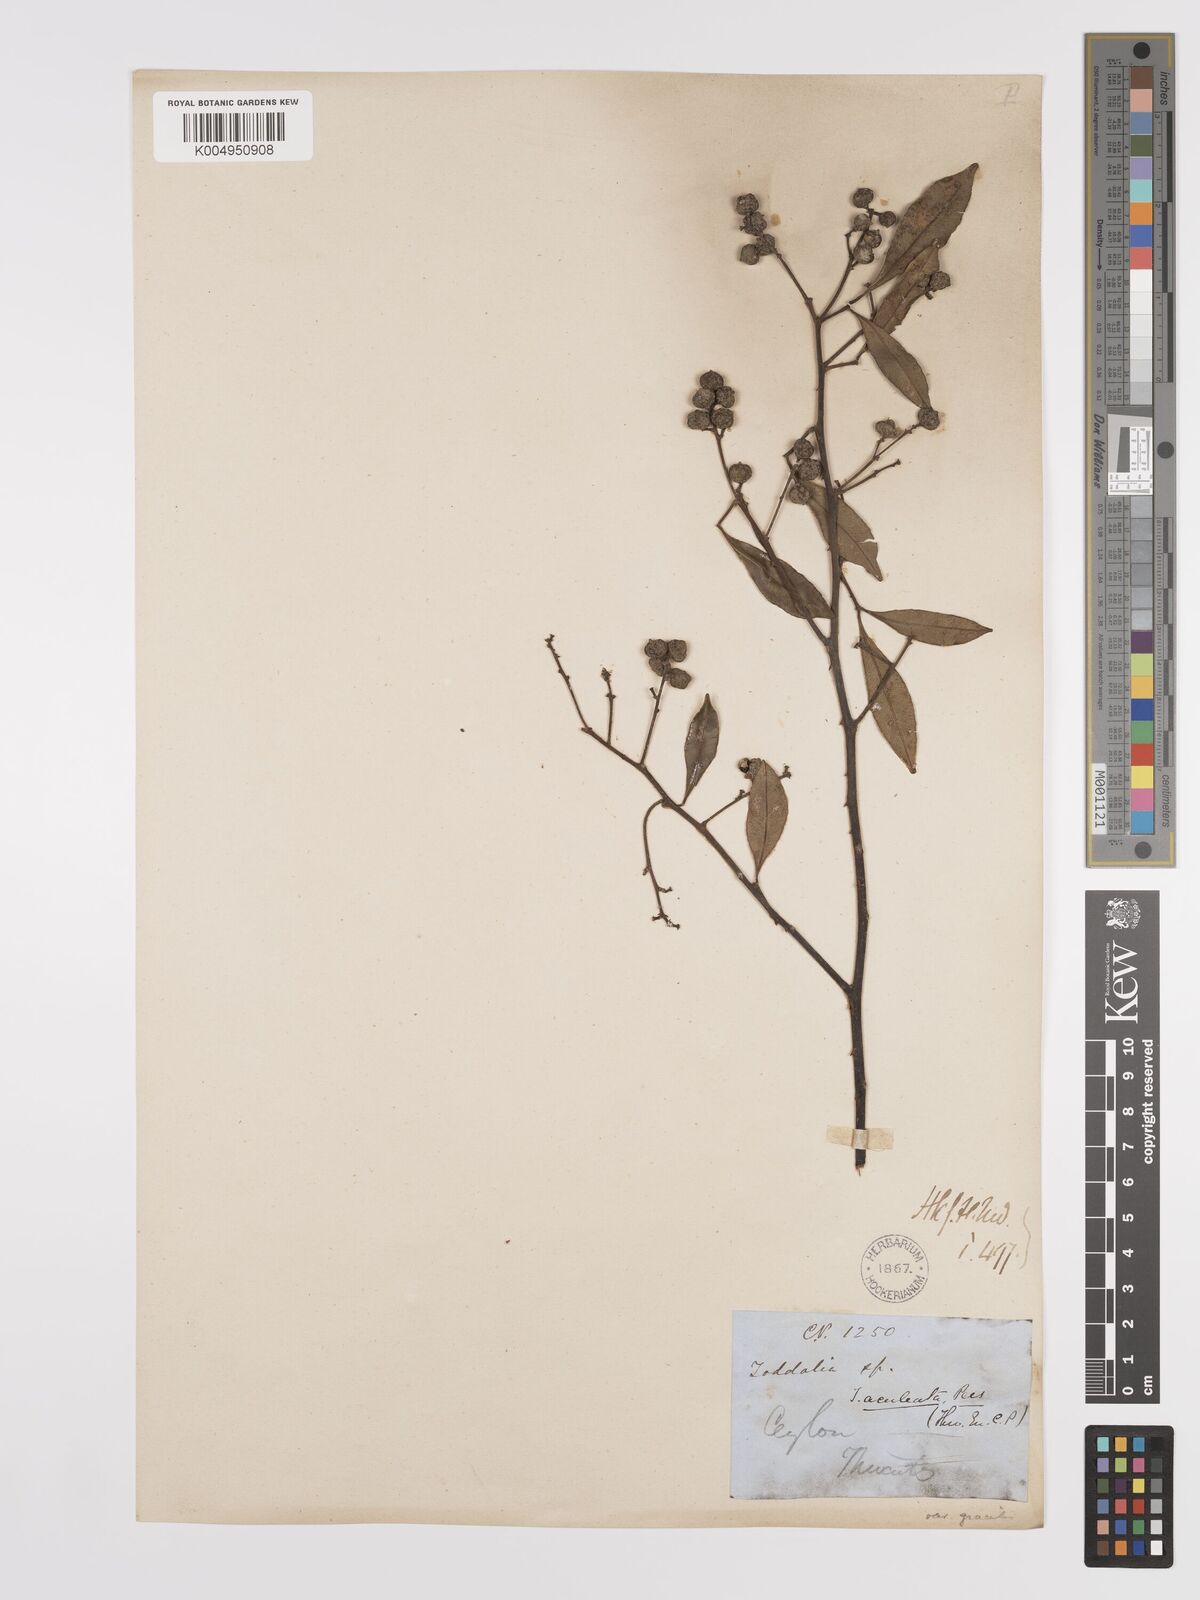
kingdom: Plantae
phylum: Tracheophyta
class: Magnoliopsida
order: Sapindales
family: Rutaceae
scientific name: Rutaceae
